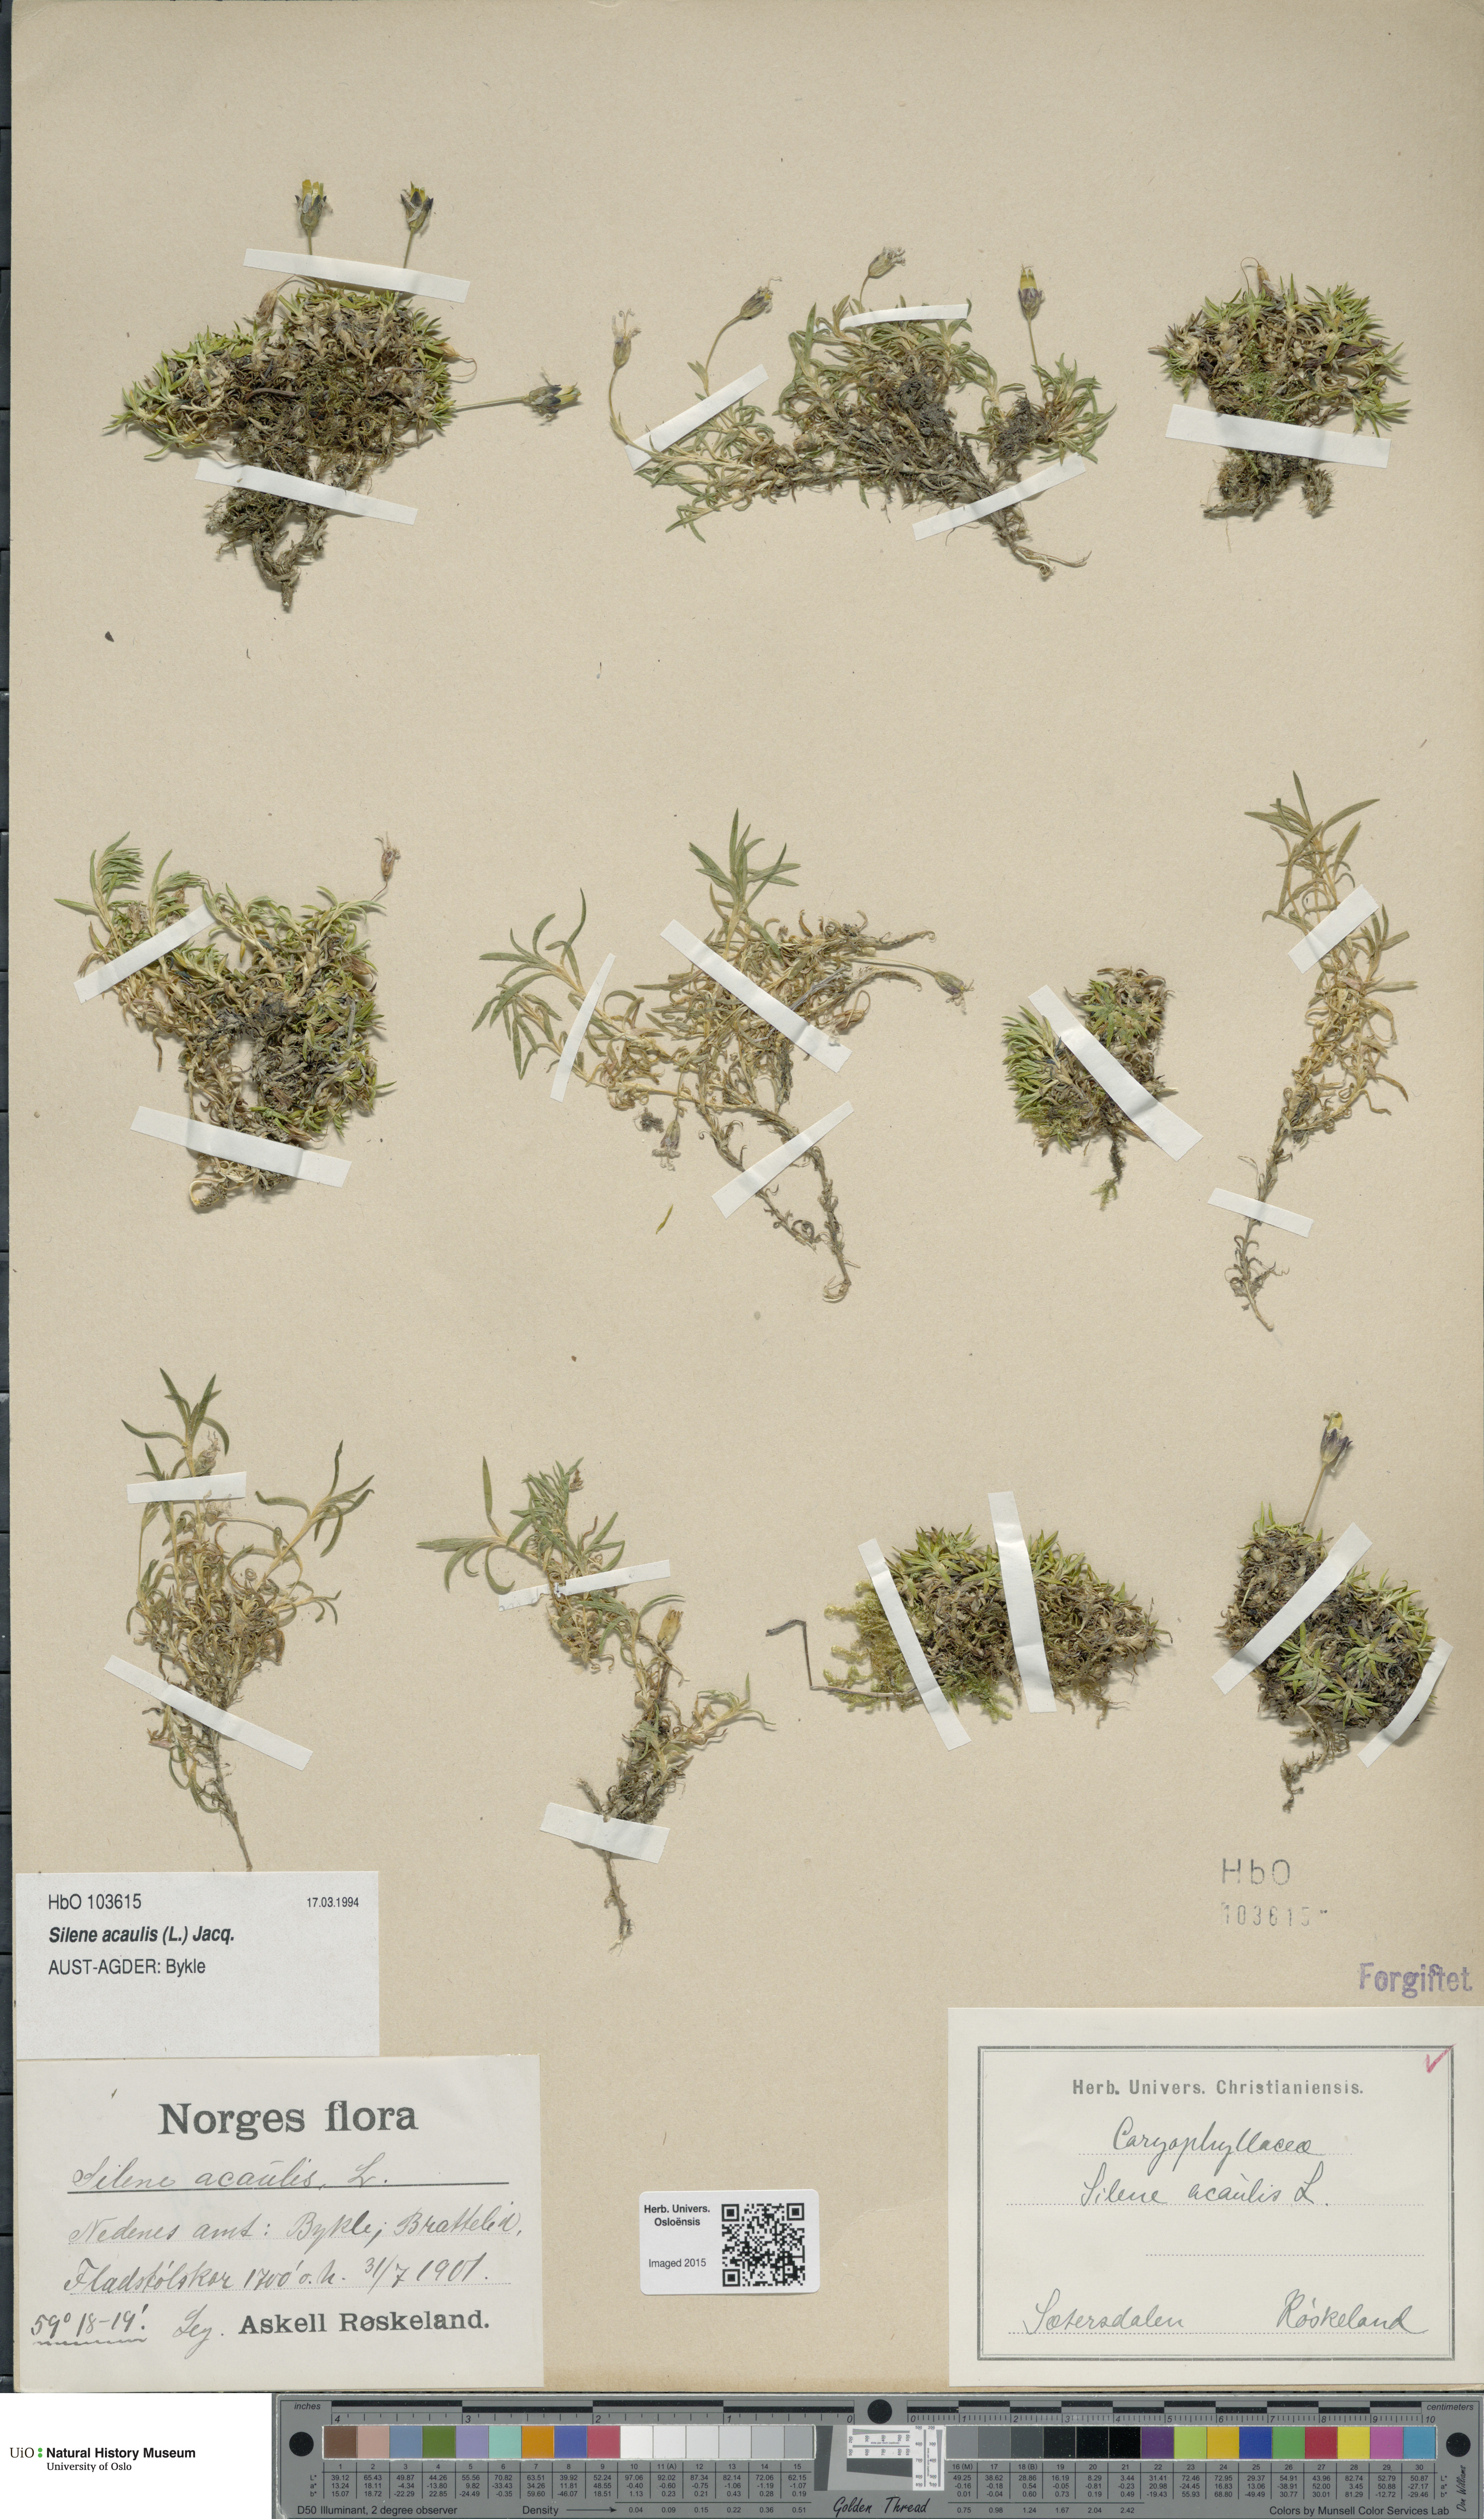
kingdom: Plantae
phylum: Tracheophyta
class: Magnoliopsida
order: Caryophyllales
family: Caryophyllaceae
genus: Silene
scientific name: Silene acaulis
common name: Moss campion
